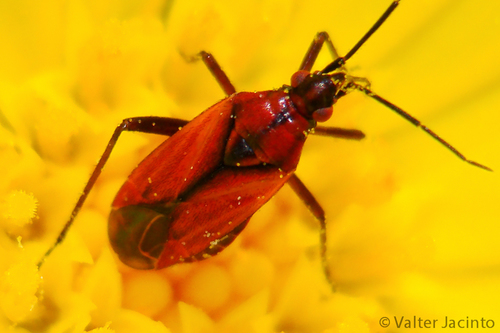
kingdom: Animalia
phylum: Arthropoda
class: Insecta
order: Hemiptera
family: Miridae
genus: Macrotylus
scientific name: Macrotylus nigricornis
